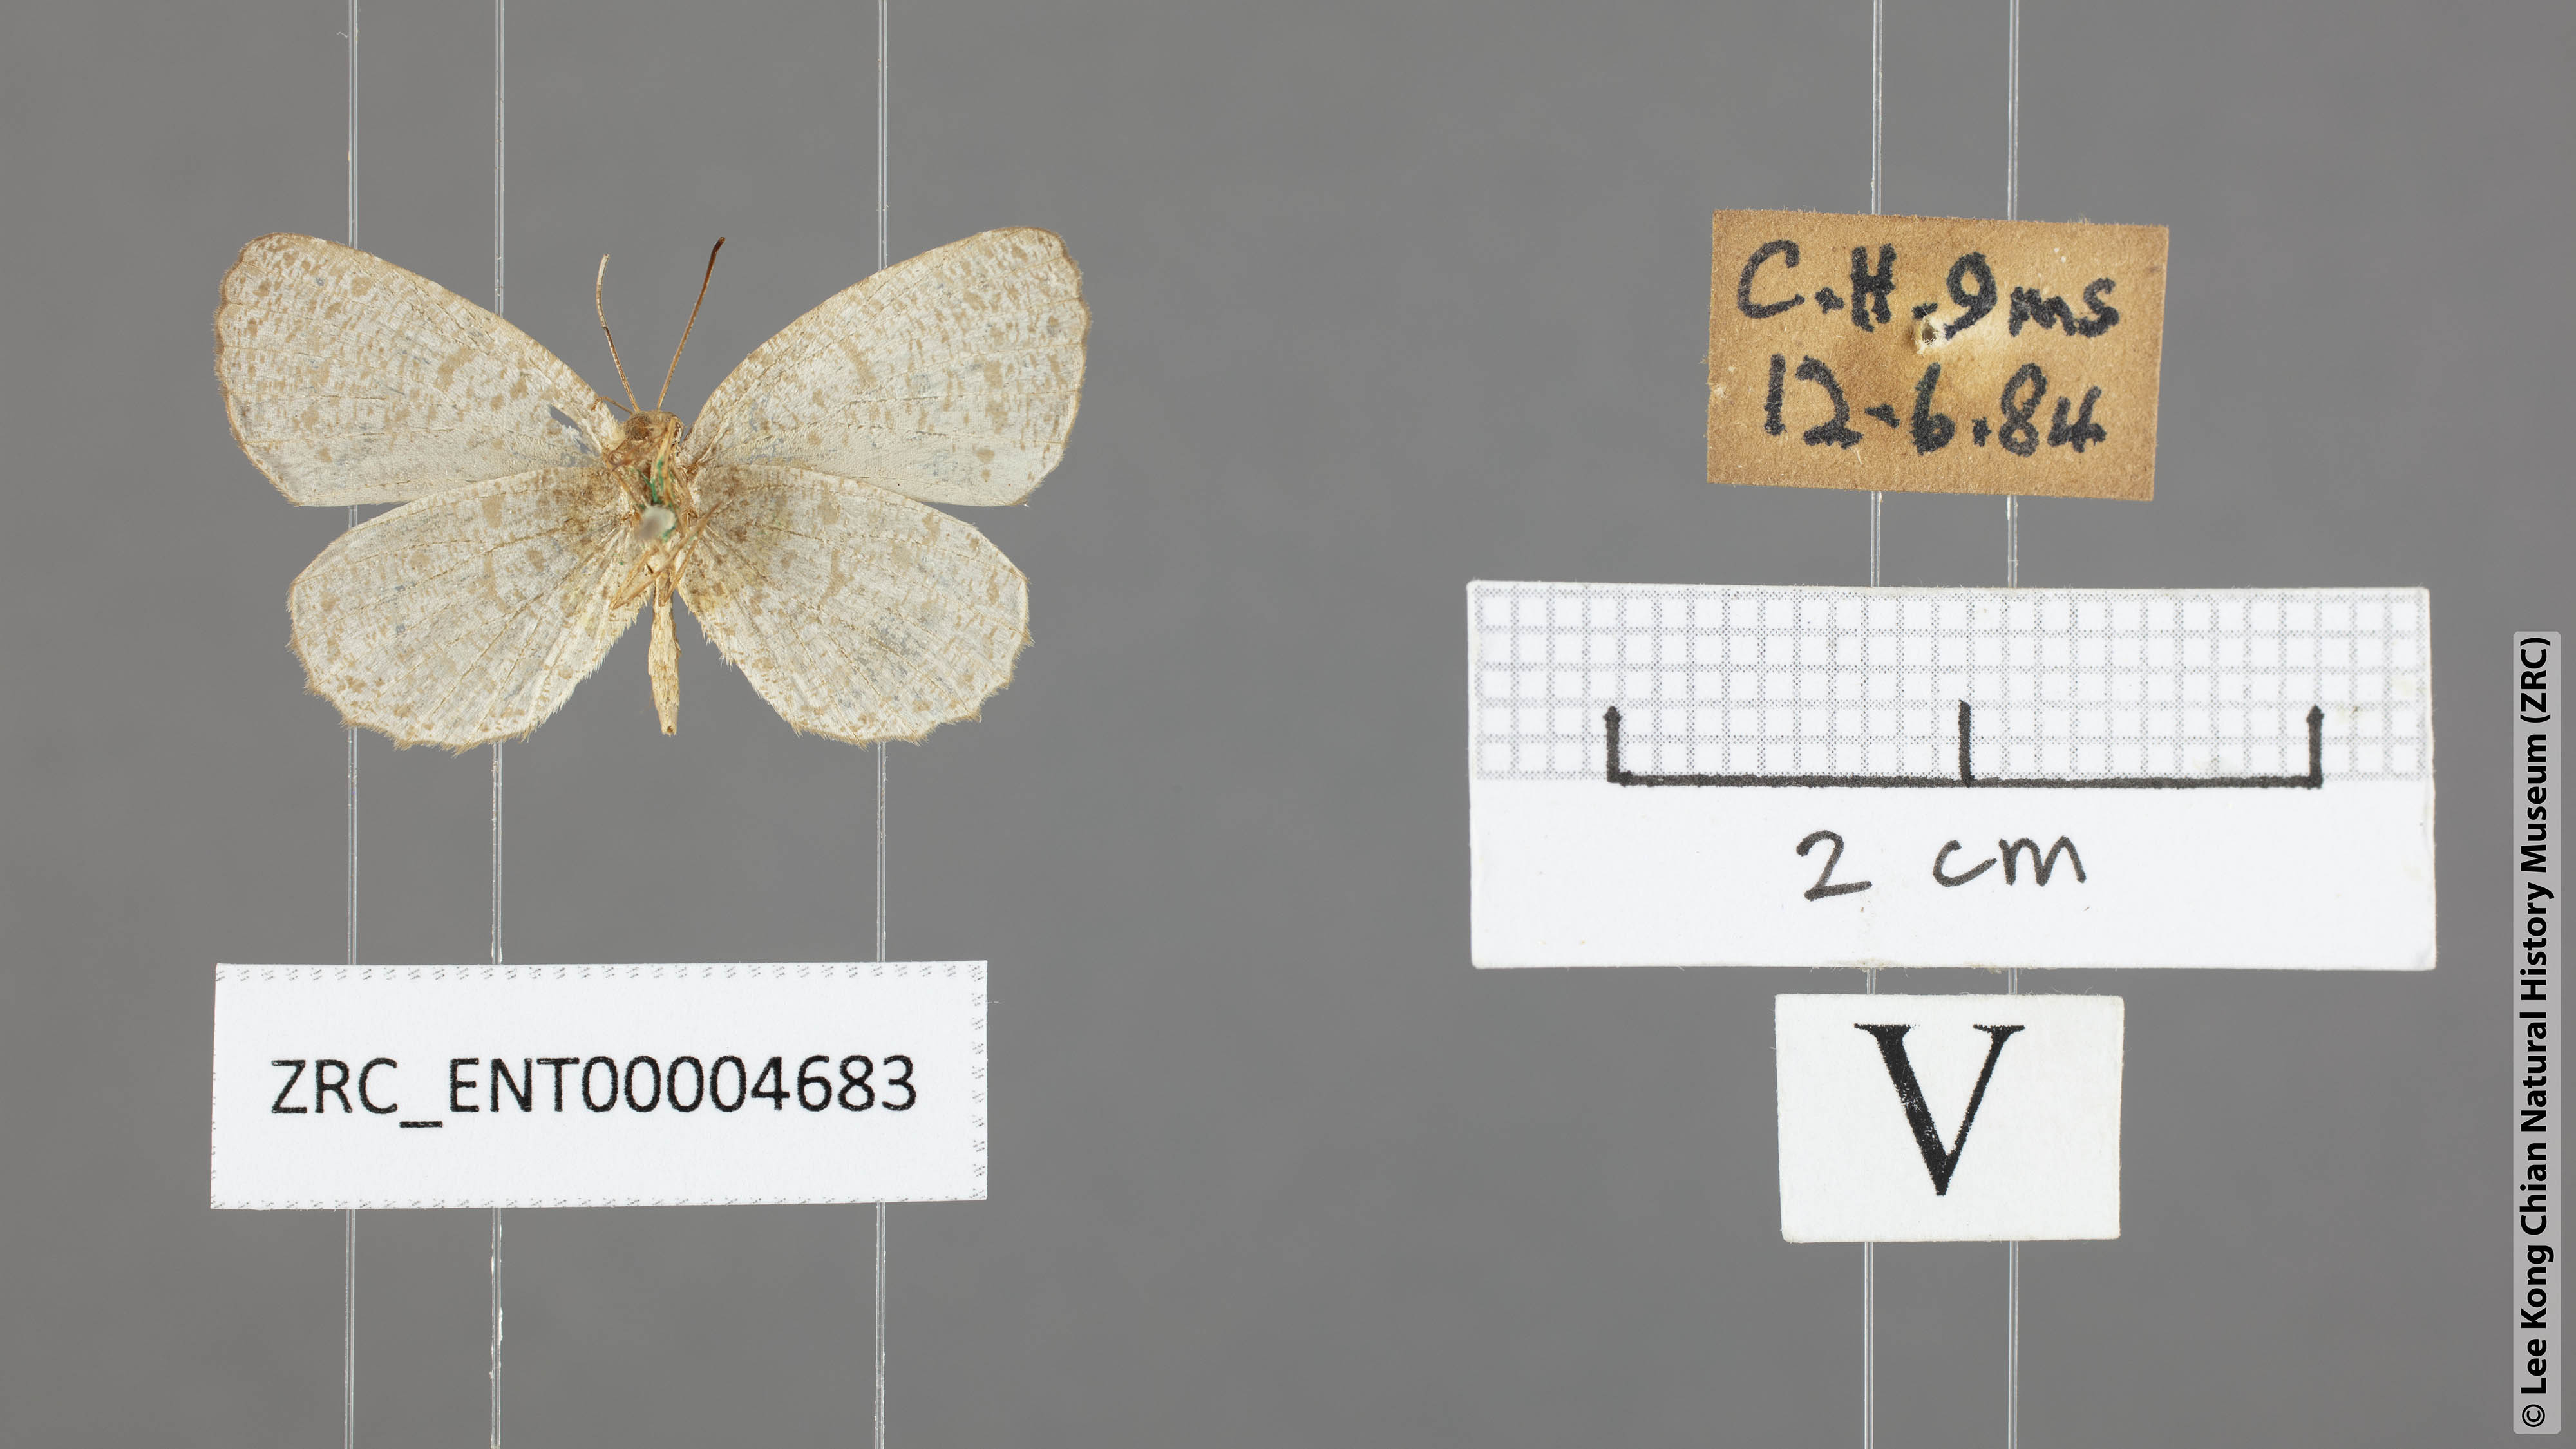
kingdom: Animalia
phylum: Arthropoda
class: Insecta
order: Lepidoptera
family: Lycaenidae
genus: Allotinus
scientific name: Allotinus corbeti
